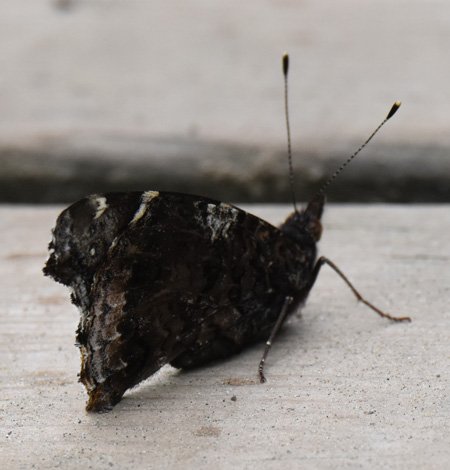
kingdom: Animalia
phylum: Arthropoda
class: Insecta
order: Lepidoptera
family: Nymphalidae
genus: Vanessa
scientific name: Vanessa atalanta
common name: Red Admiral
